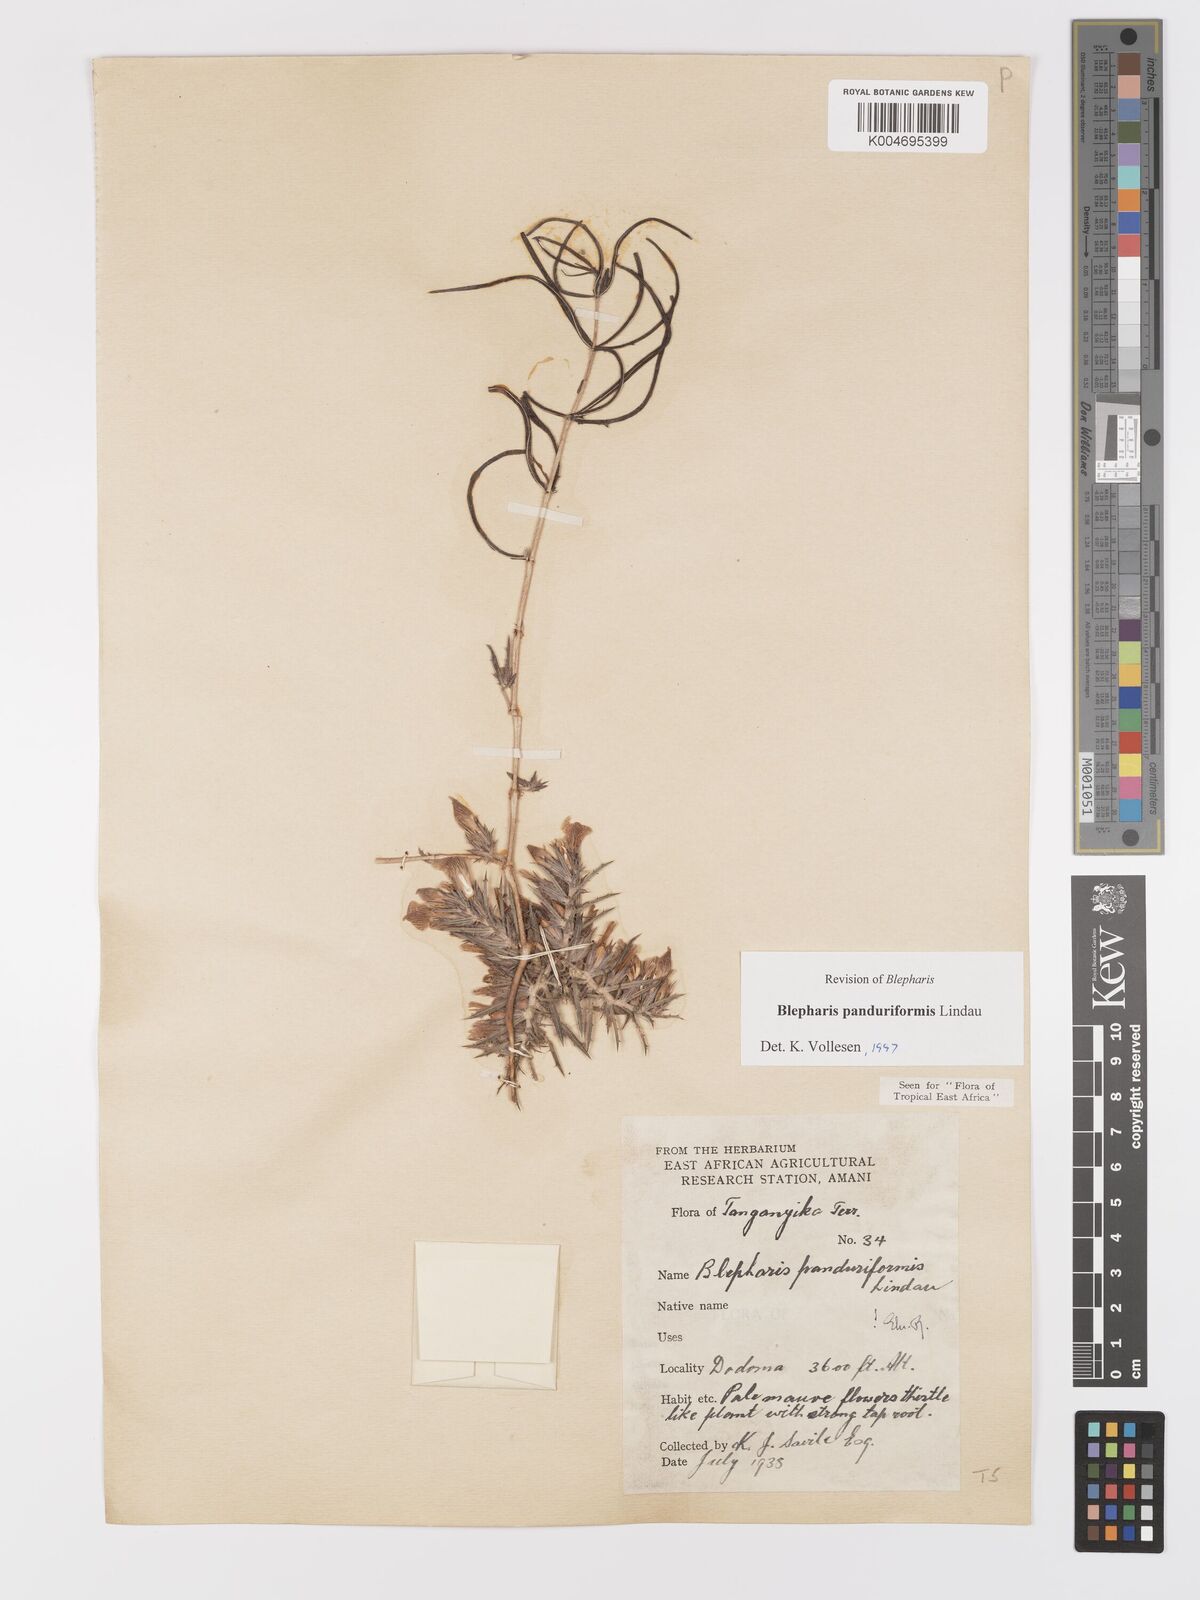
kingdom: Plantae
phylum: Tracheophyta
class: Magnoliopsida
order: Lamiales
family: Acanthaceae
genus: Blepharis
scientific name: Blepharis panduriformis
